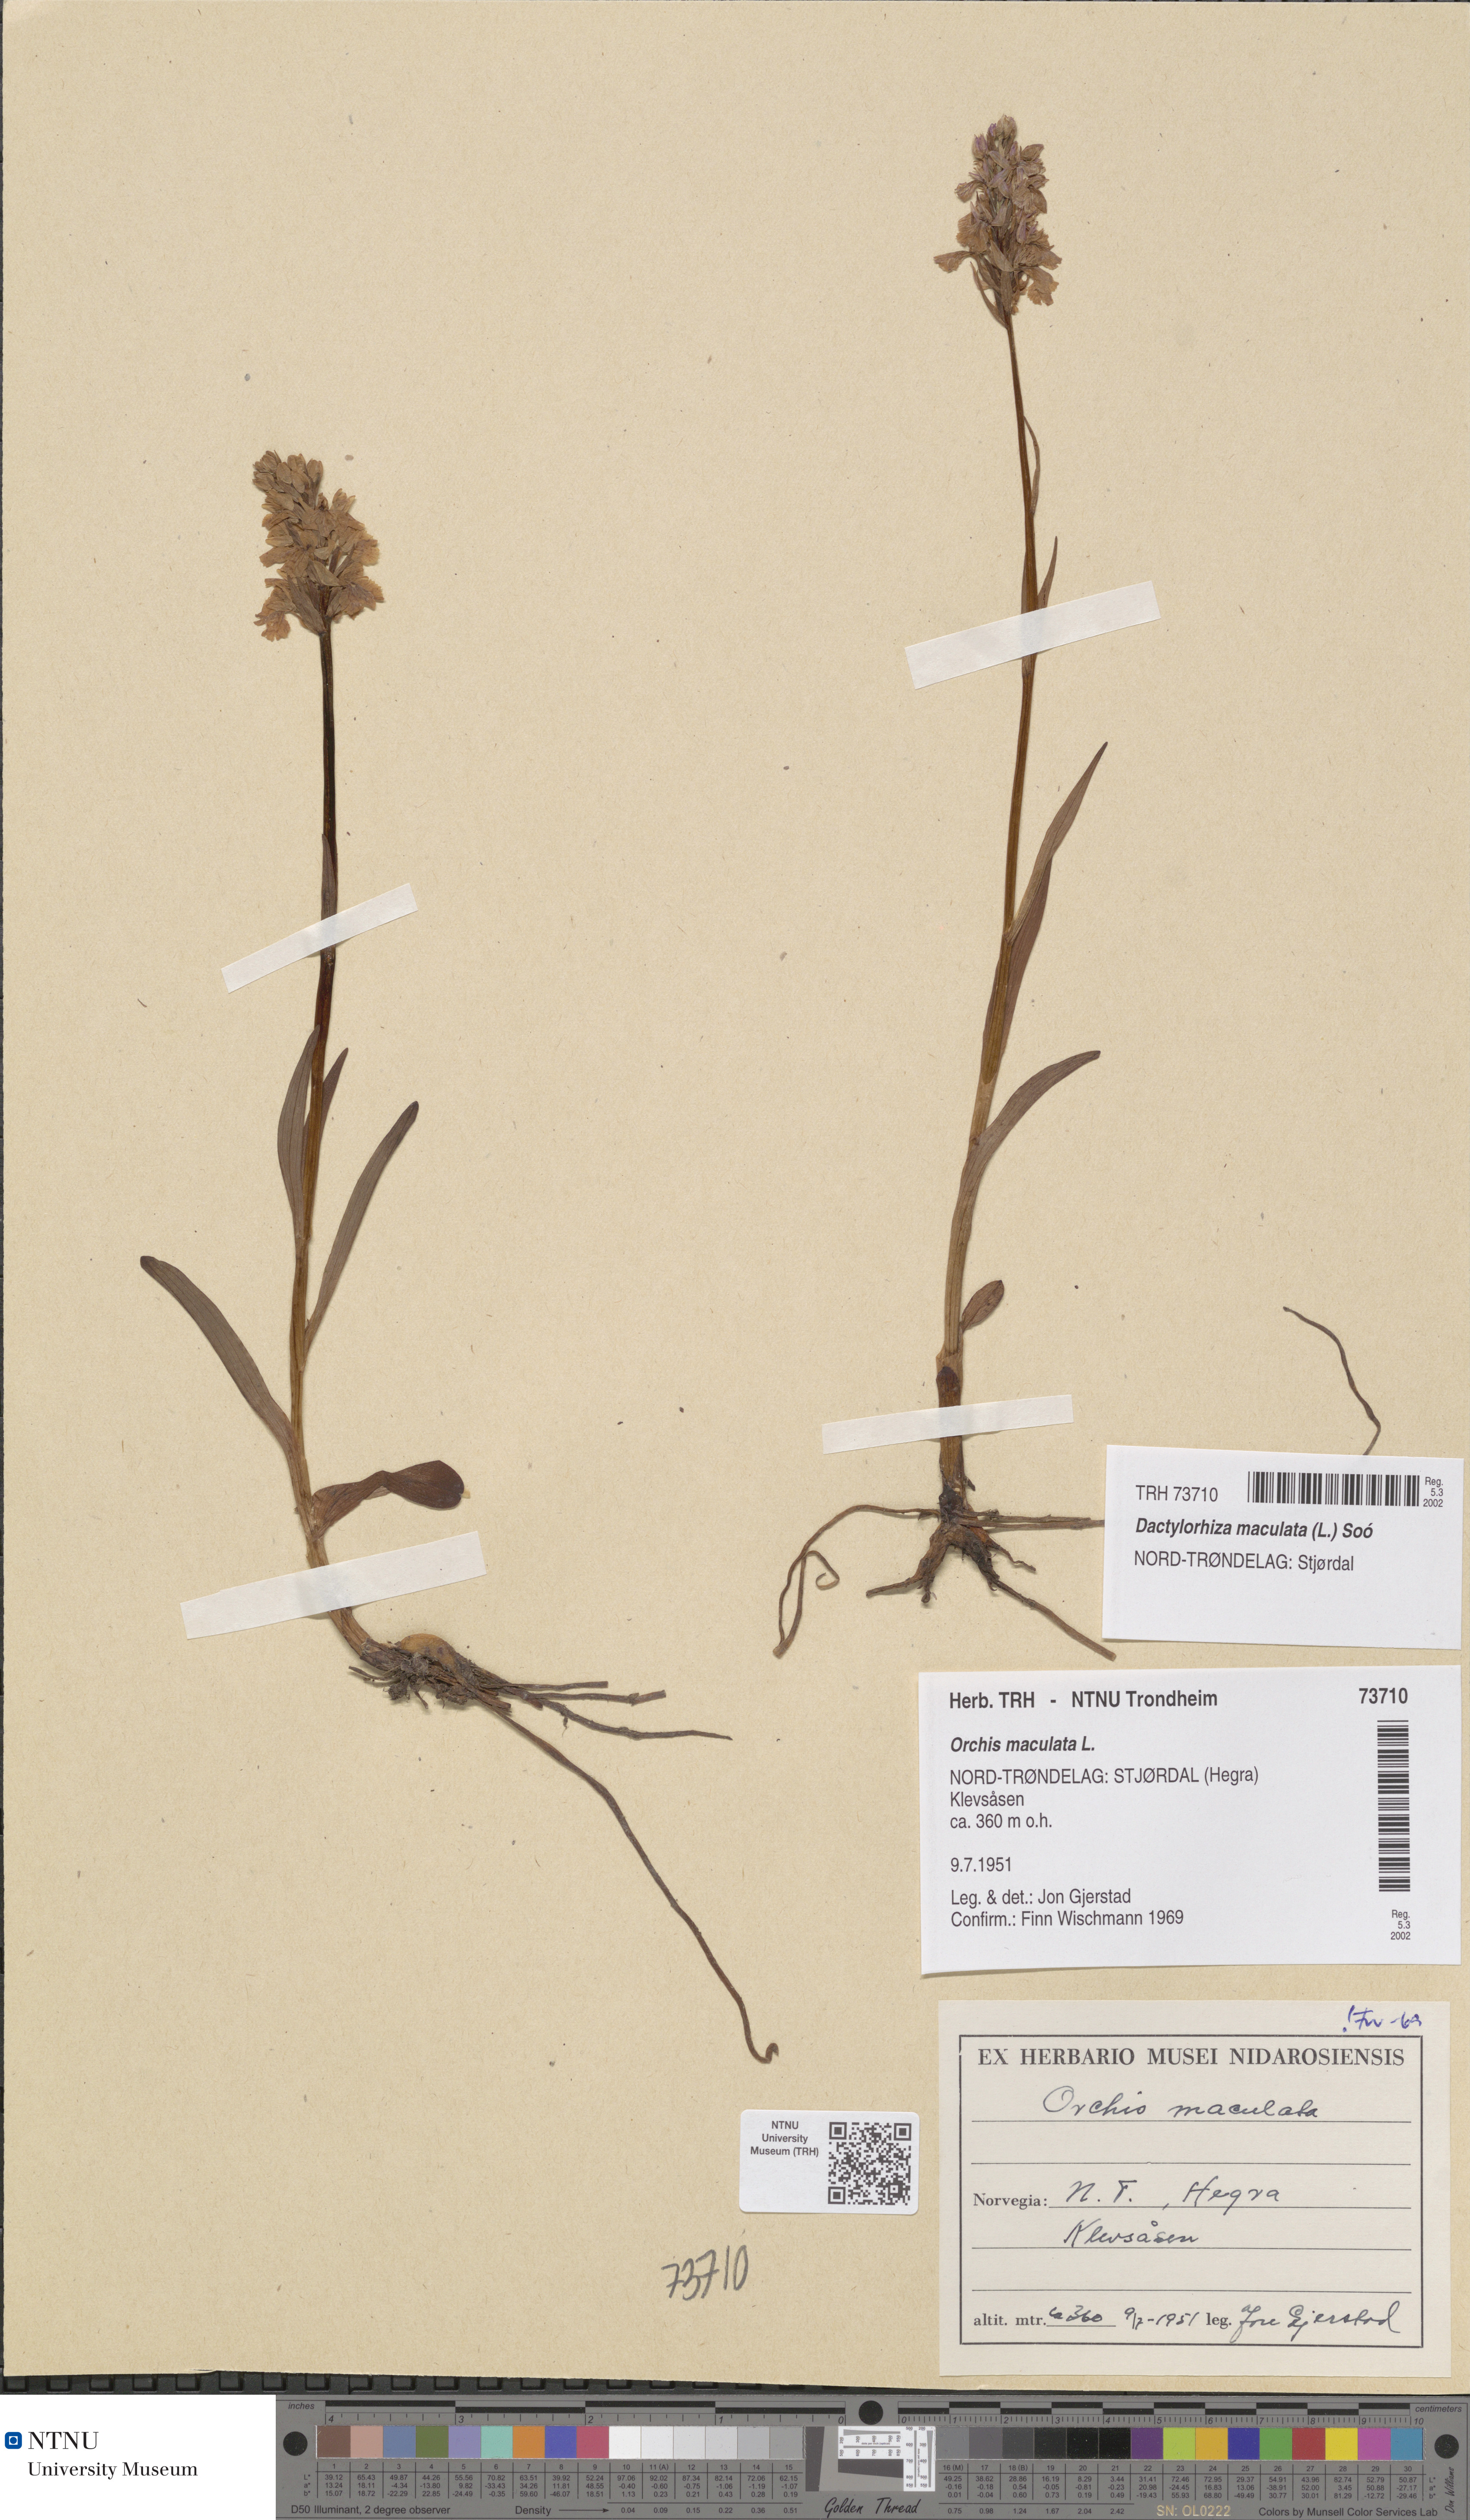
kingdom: Plantae
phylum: Tracheophyta
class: Liliopsida
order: Asparagales
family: Orchidaceae
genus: Dactylorhiza
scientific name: Dactylorhiza maculata
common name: Heath spotted-orchid
